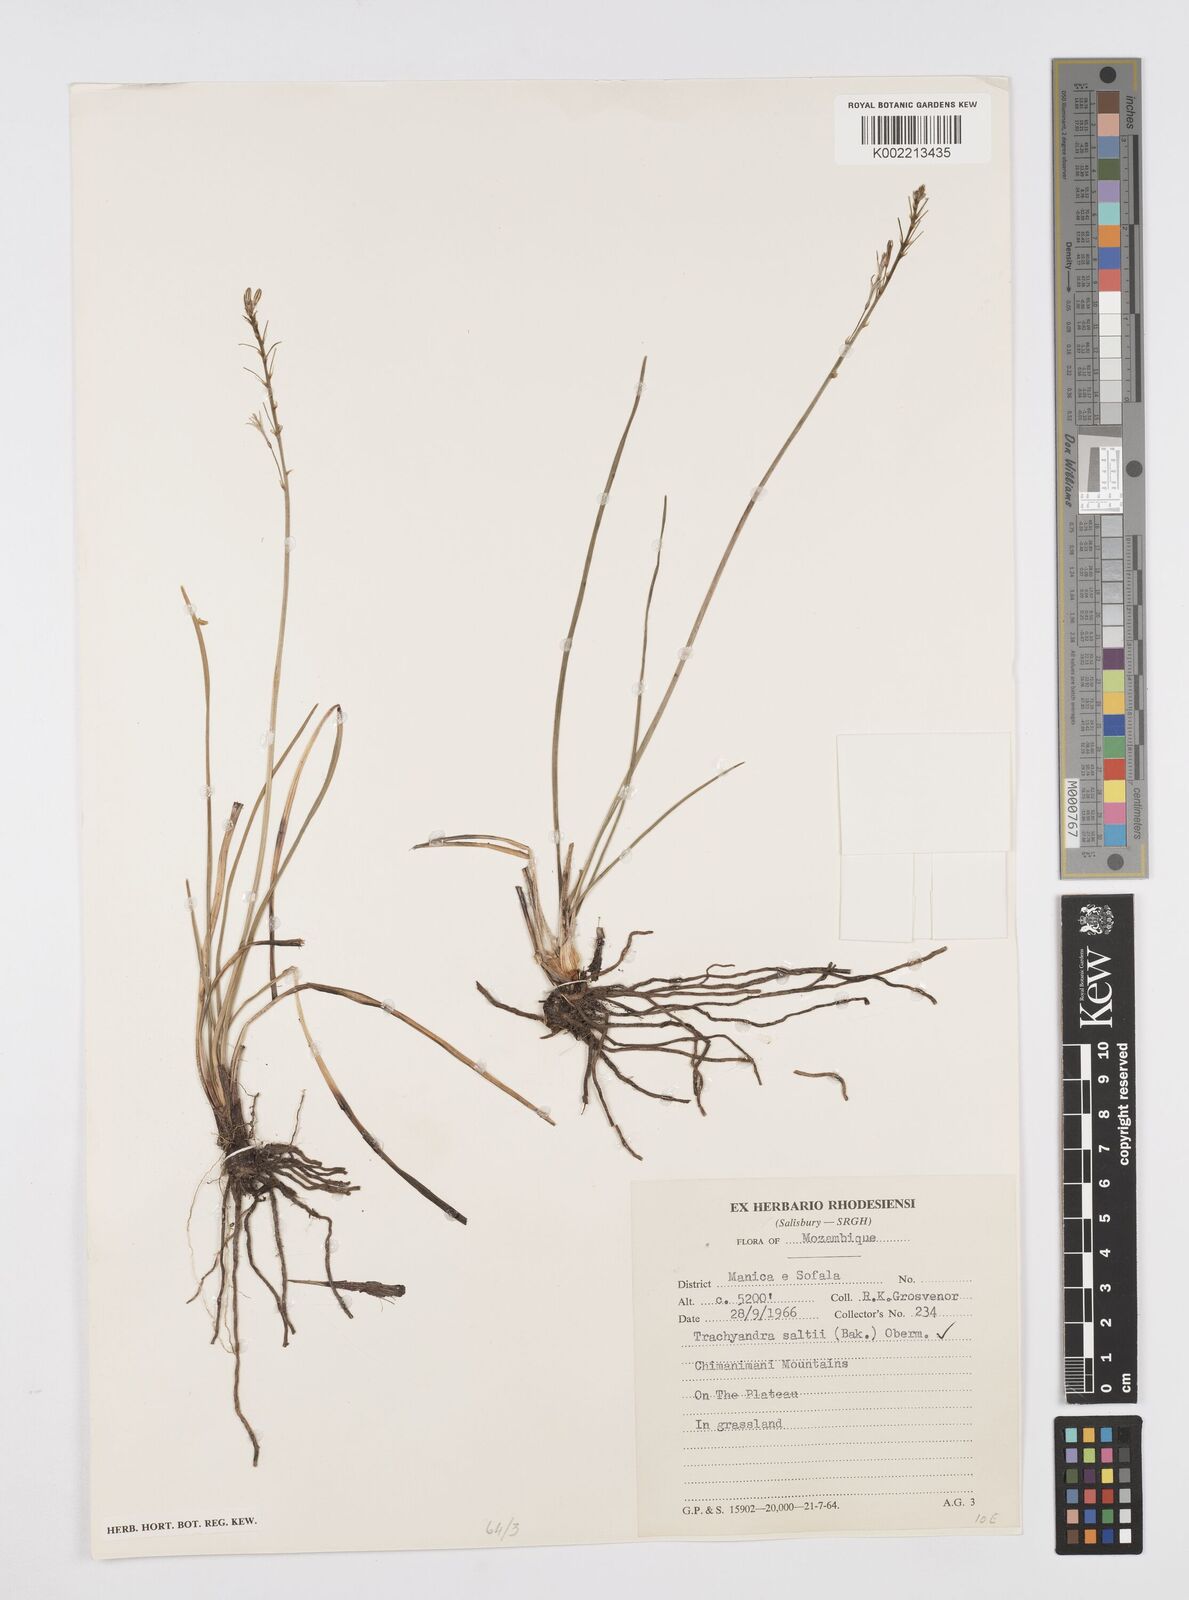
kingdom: Plantae
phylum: Tracheophyta
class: Liliopsida
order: Asparagales
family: Asphodelaceae
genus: Trachyandra
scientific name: Trachyandra saltii
